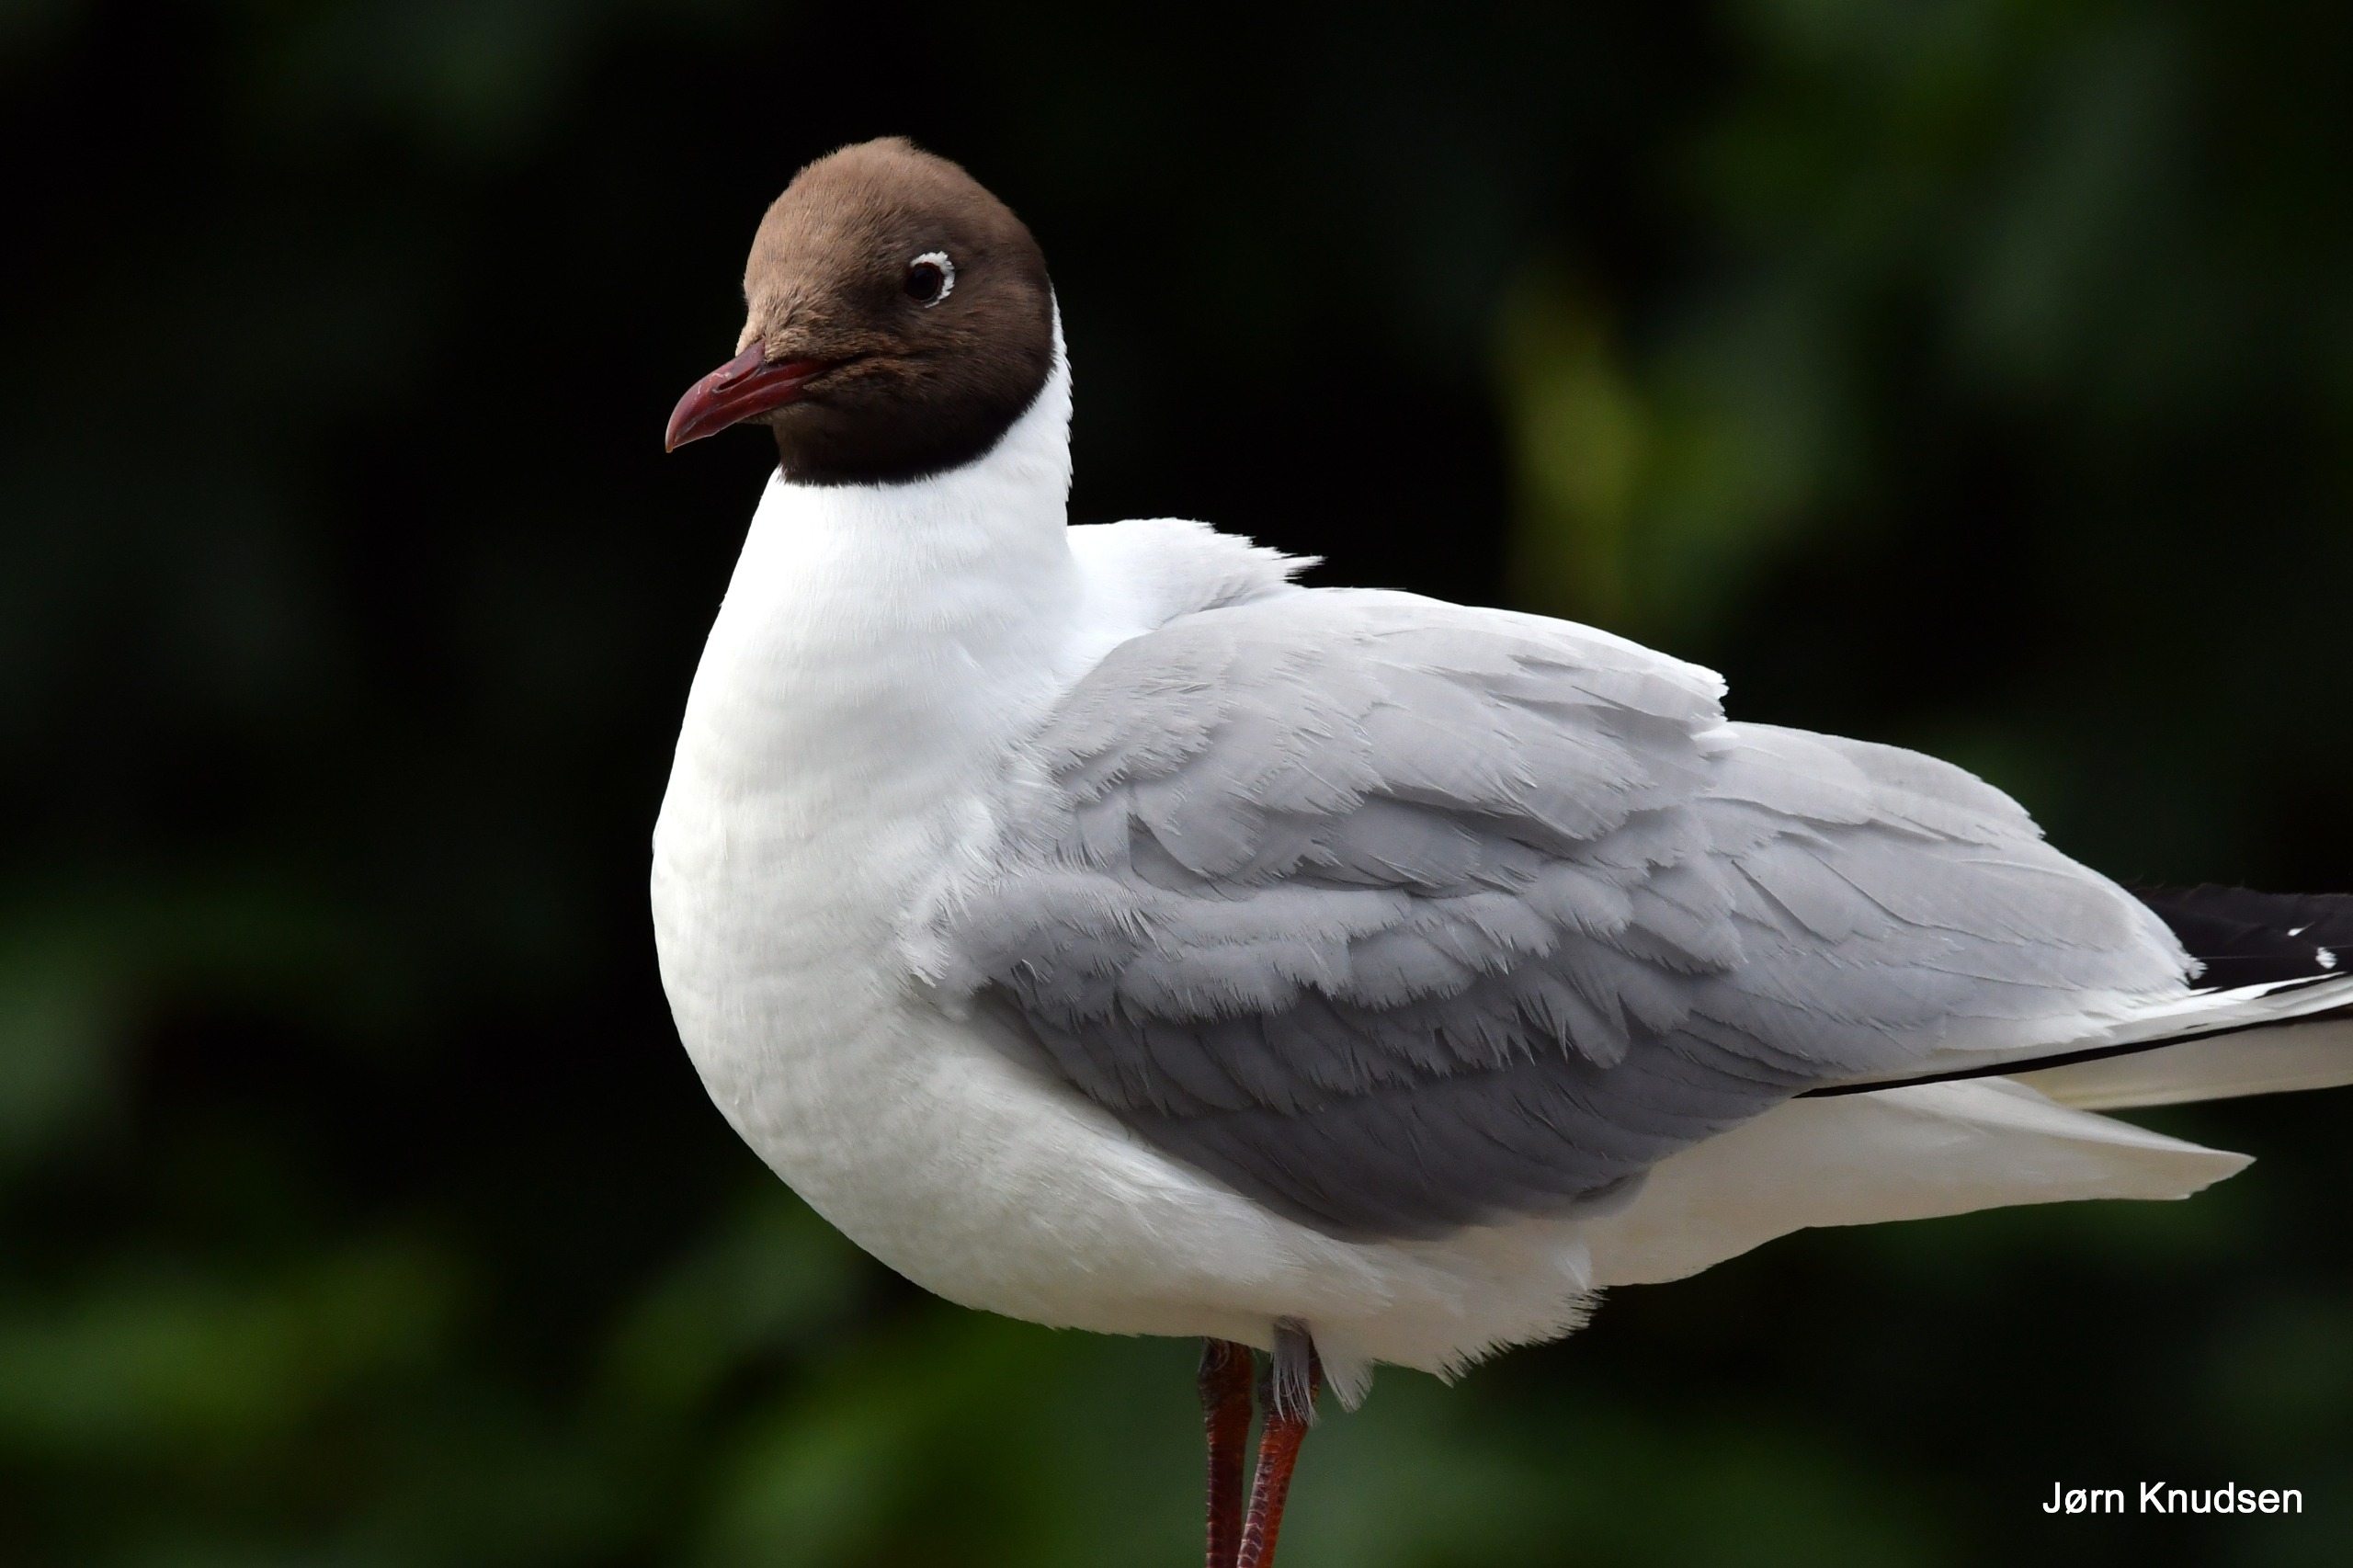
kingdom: Animalia
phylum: Chordata
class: Aves
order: Charadriiformes
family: Laridae
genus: Chroicocephalus
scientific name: Chroicocephalus ridibundus
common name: Hættemåge
